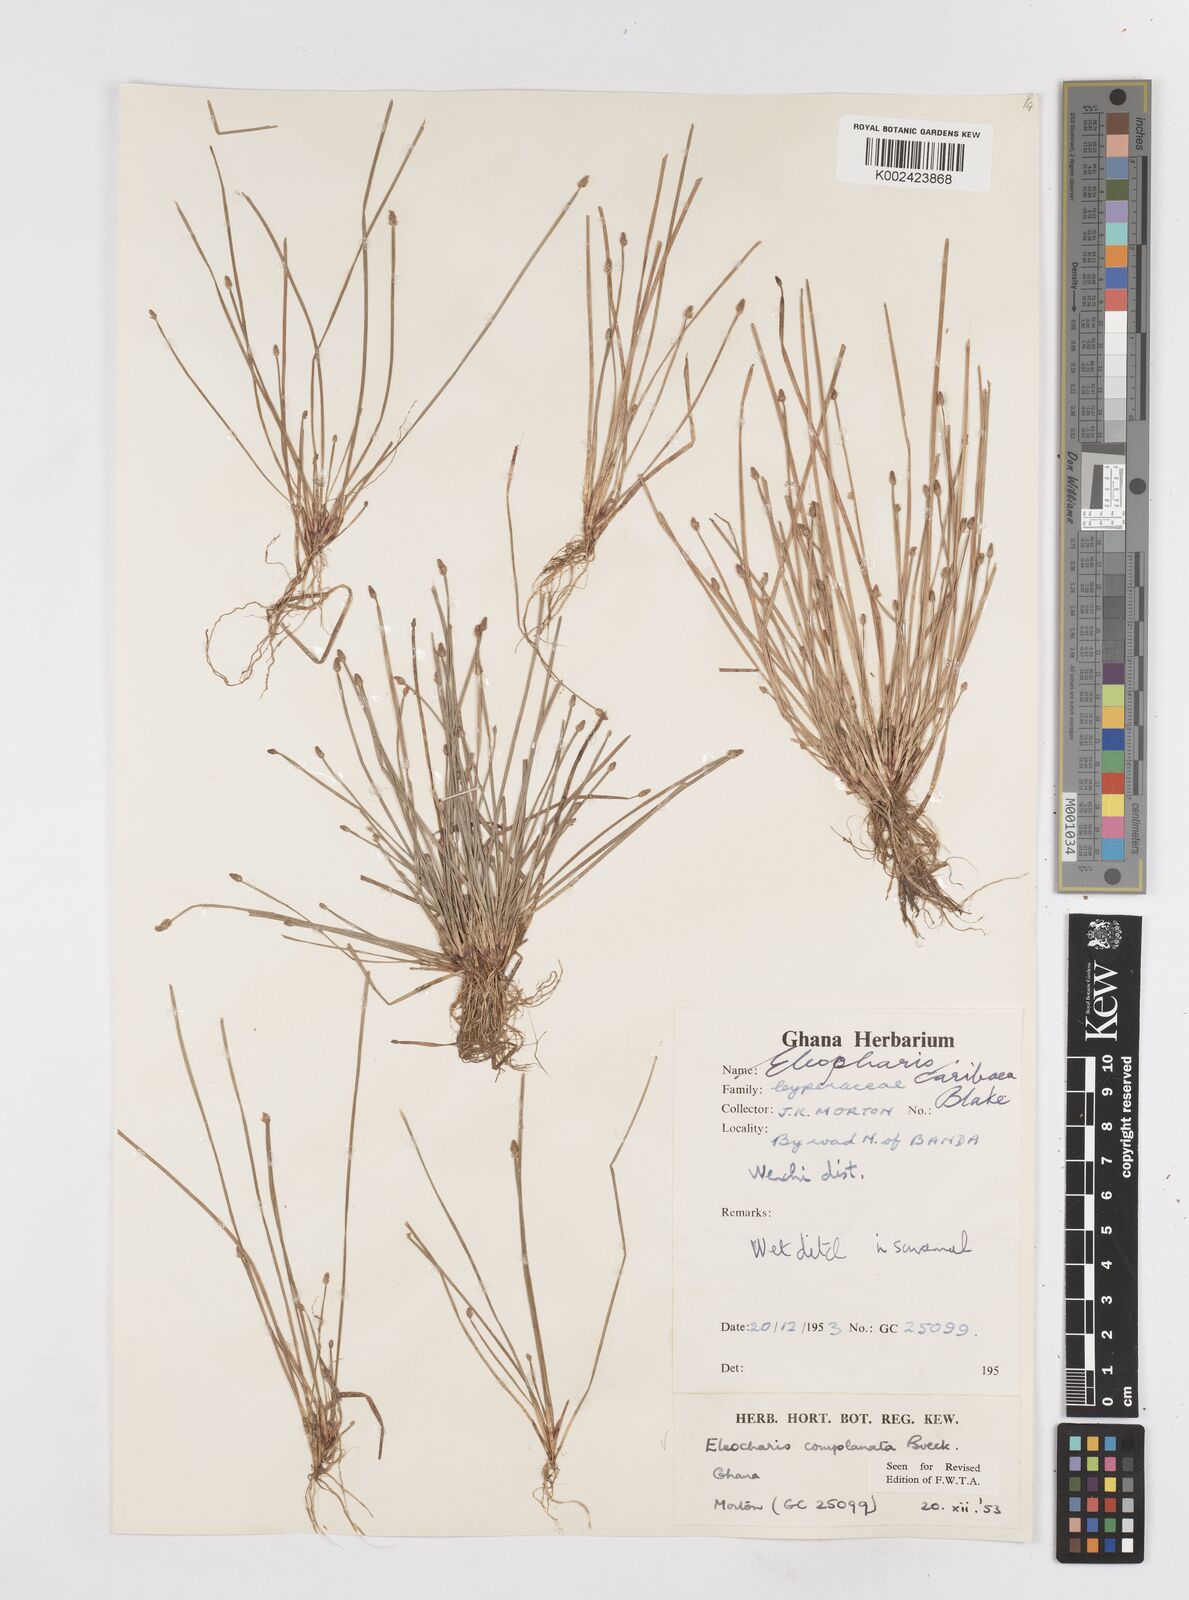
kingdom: Plantae
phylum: Tracheophyta
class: Liliopsida
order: Poales
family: Cyperaceae
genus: Eleocharis
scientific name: Eleocharis complanata
